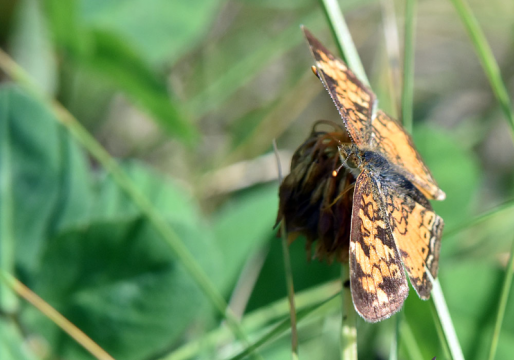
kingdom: Animalia
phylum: Arthropoda
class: Insecta
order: Lepidoptera
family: Nymphalidae
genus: Phyciodes
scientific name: Phyciodes tharos
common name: Northern Crescent
